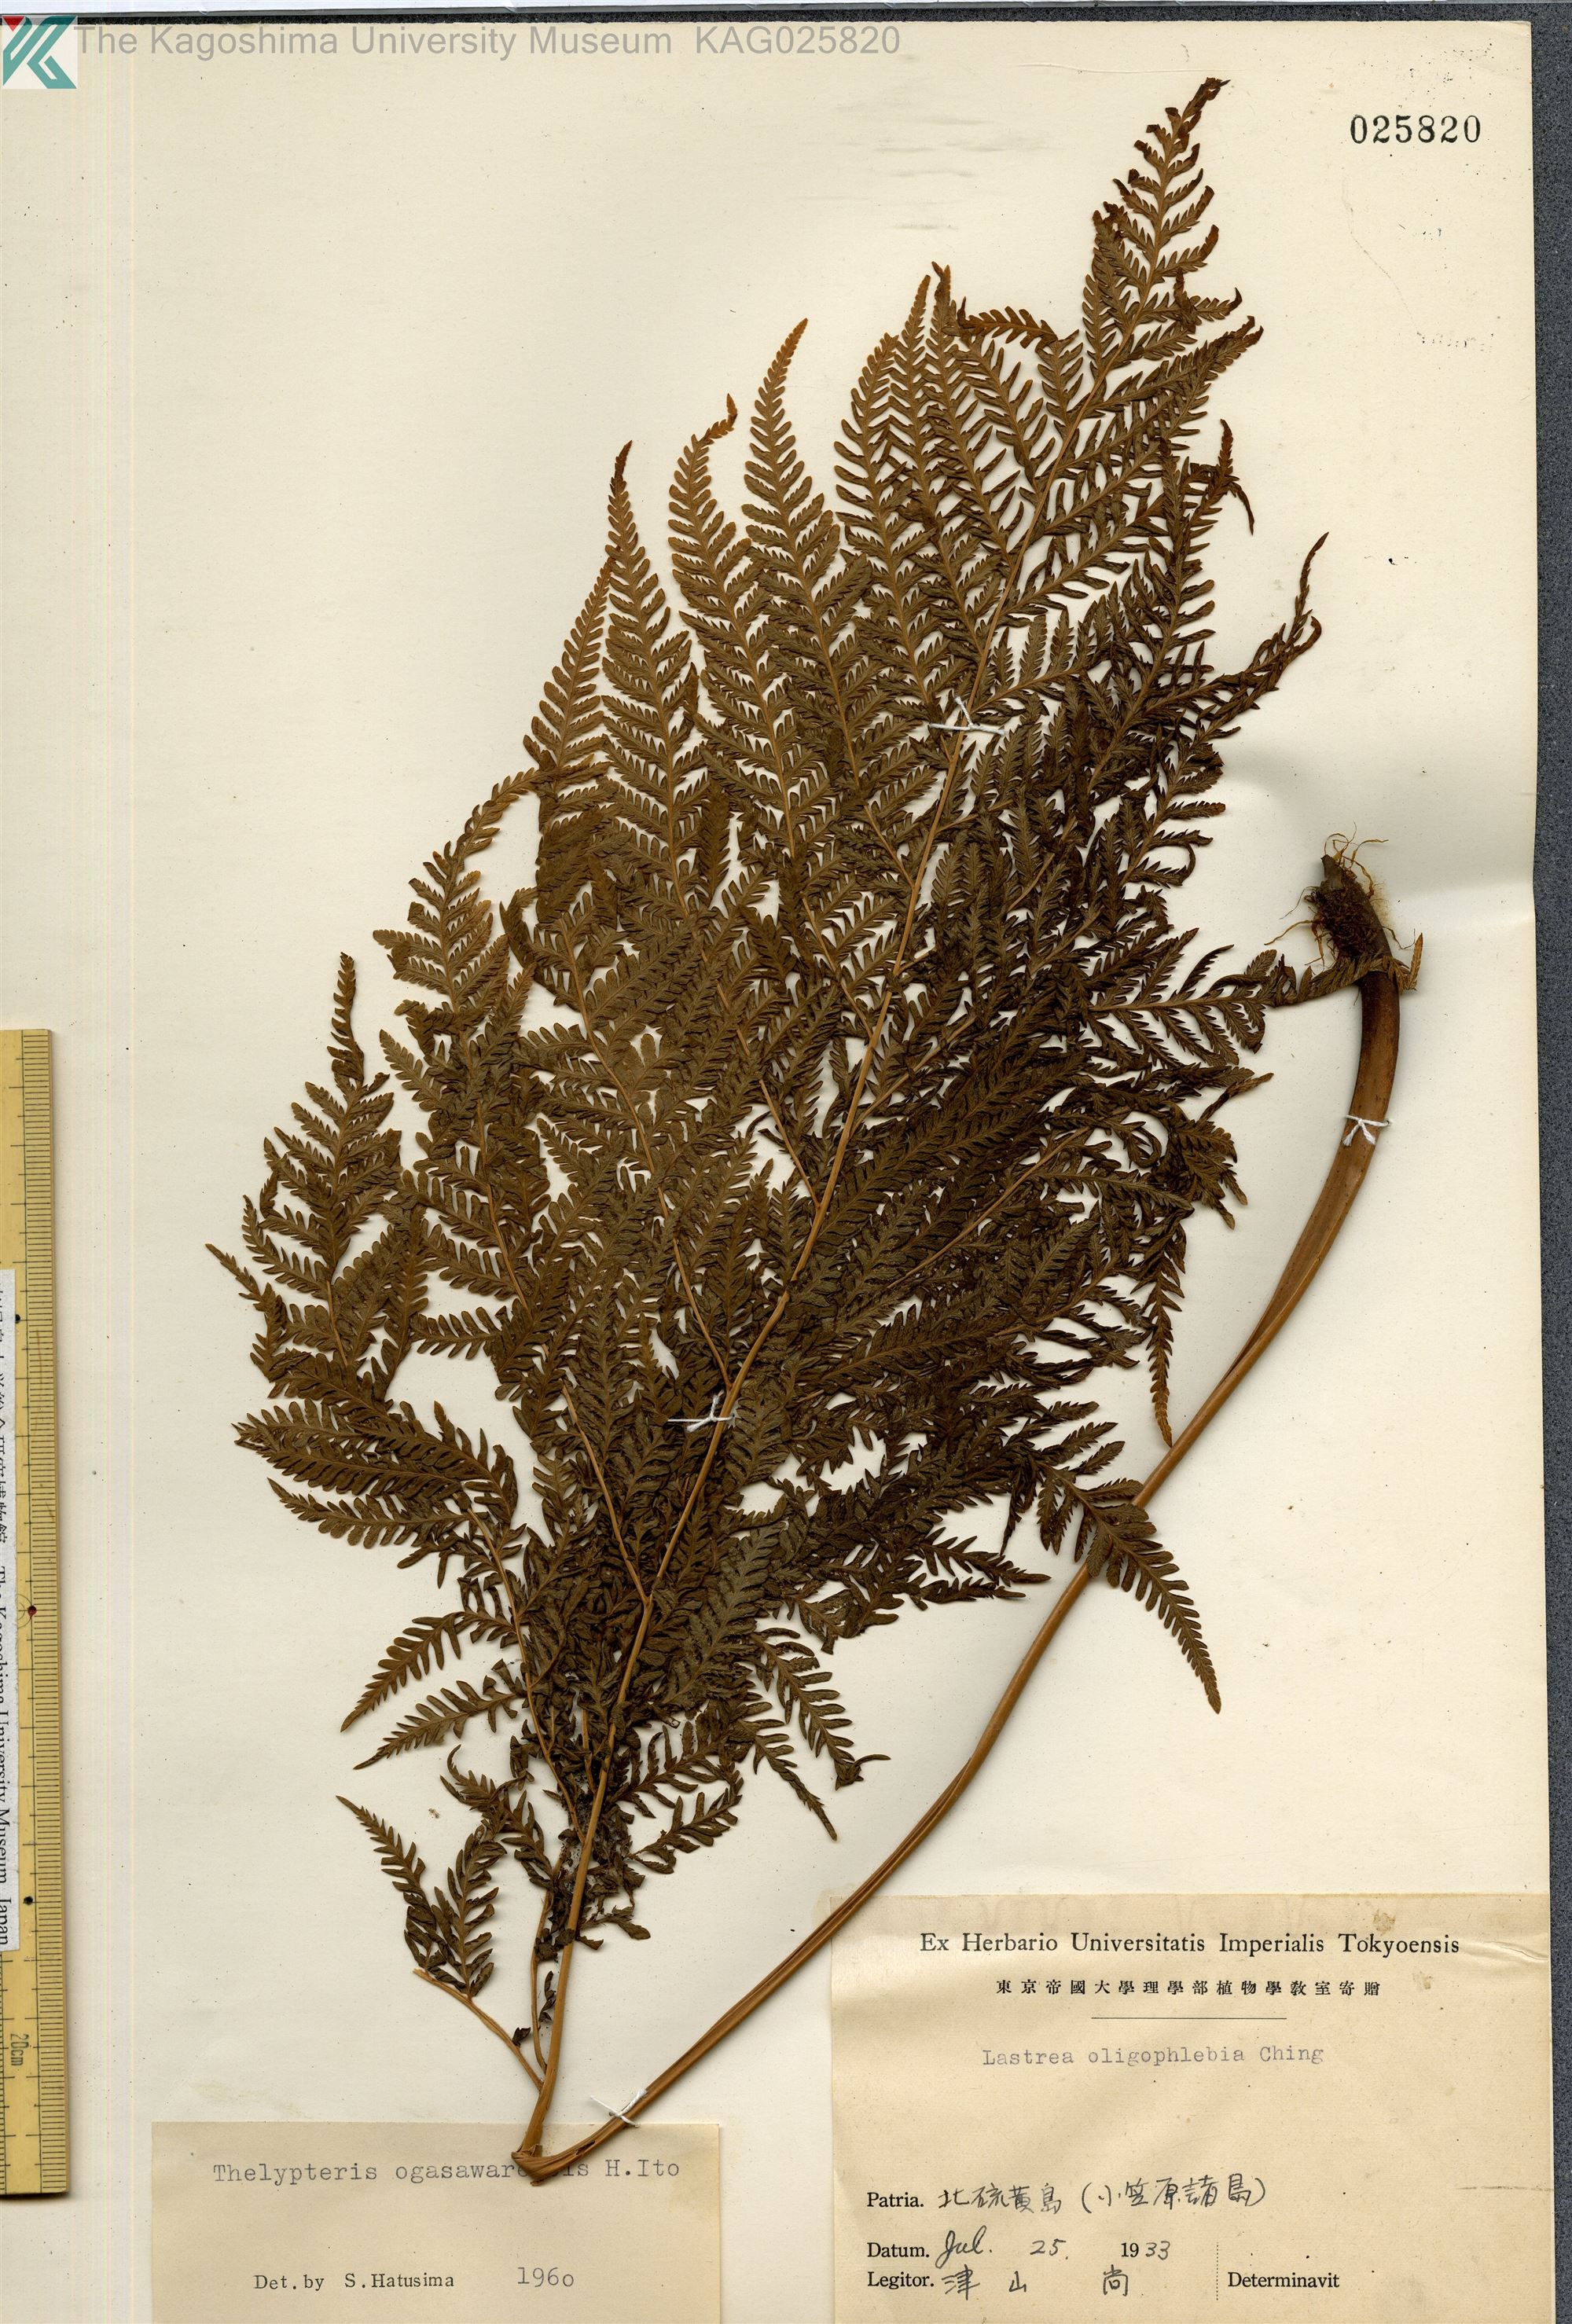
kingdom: Plantae
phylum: Tracheophyta
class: Polypodiopsida
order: Polypodiales
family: Thelypteridaceae
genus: Macrothelypteris
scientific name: Macrothelypteris ogasawarensis
